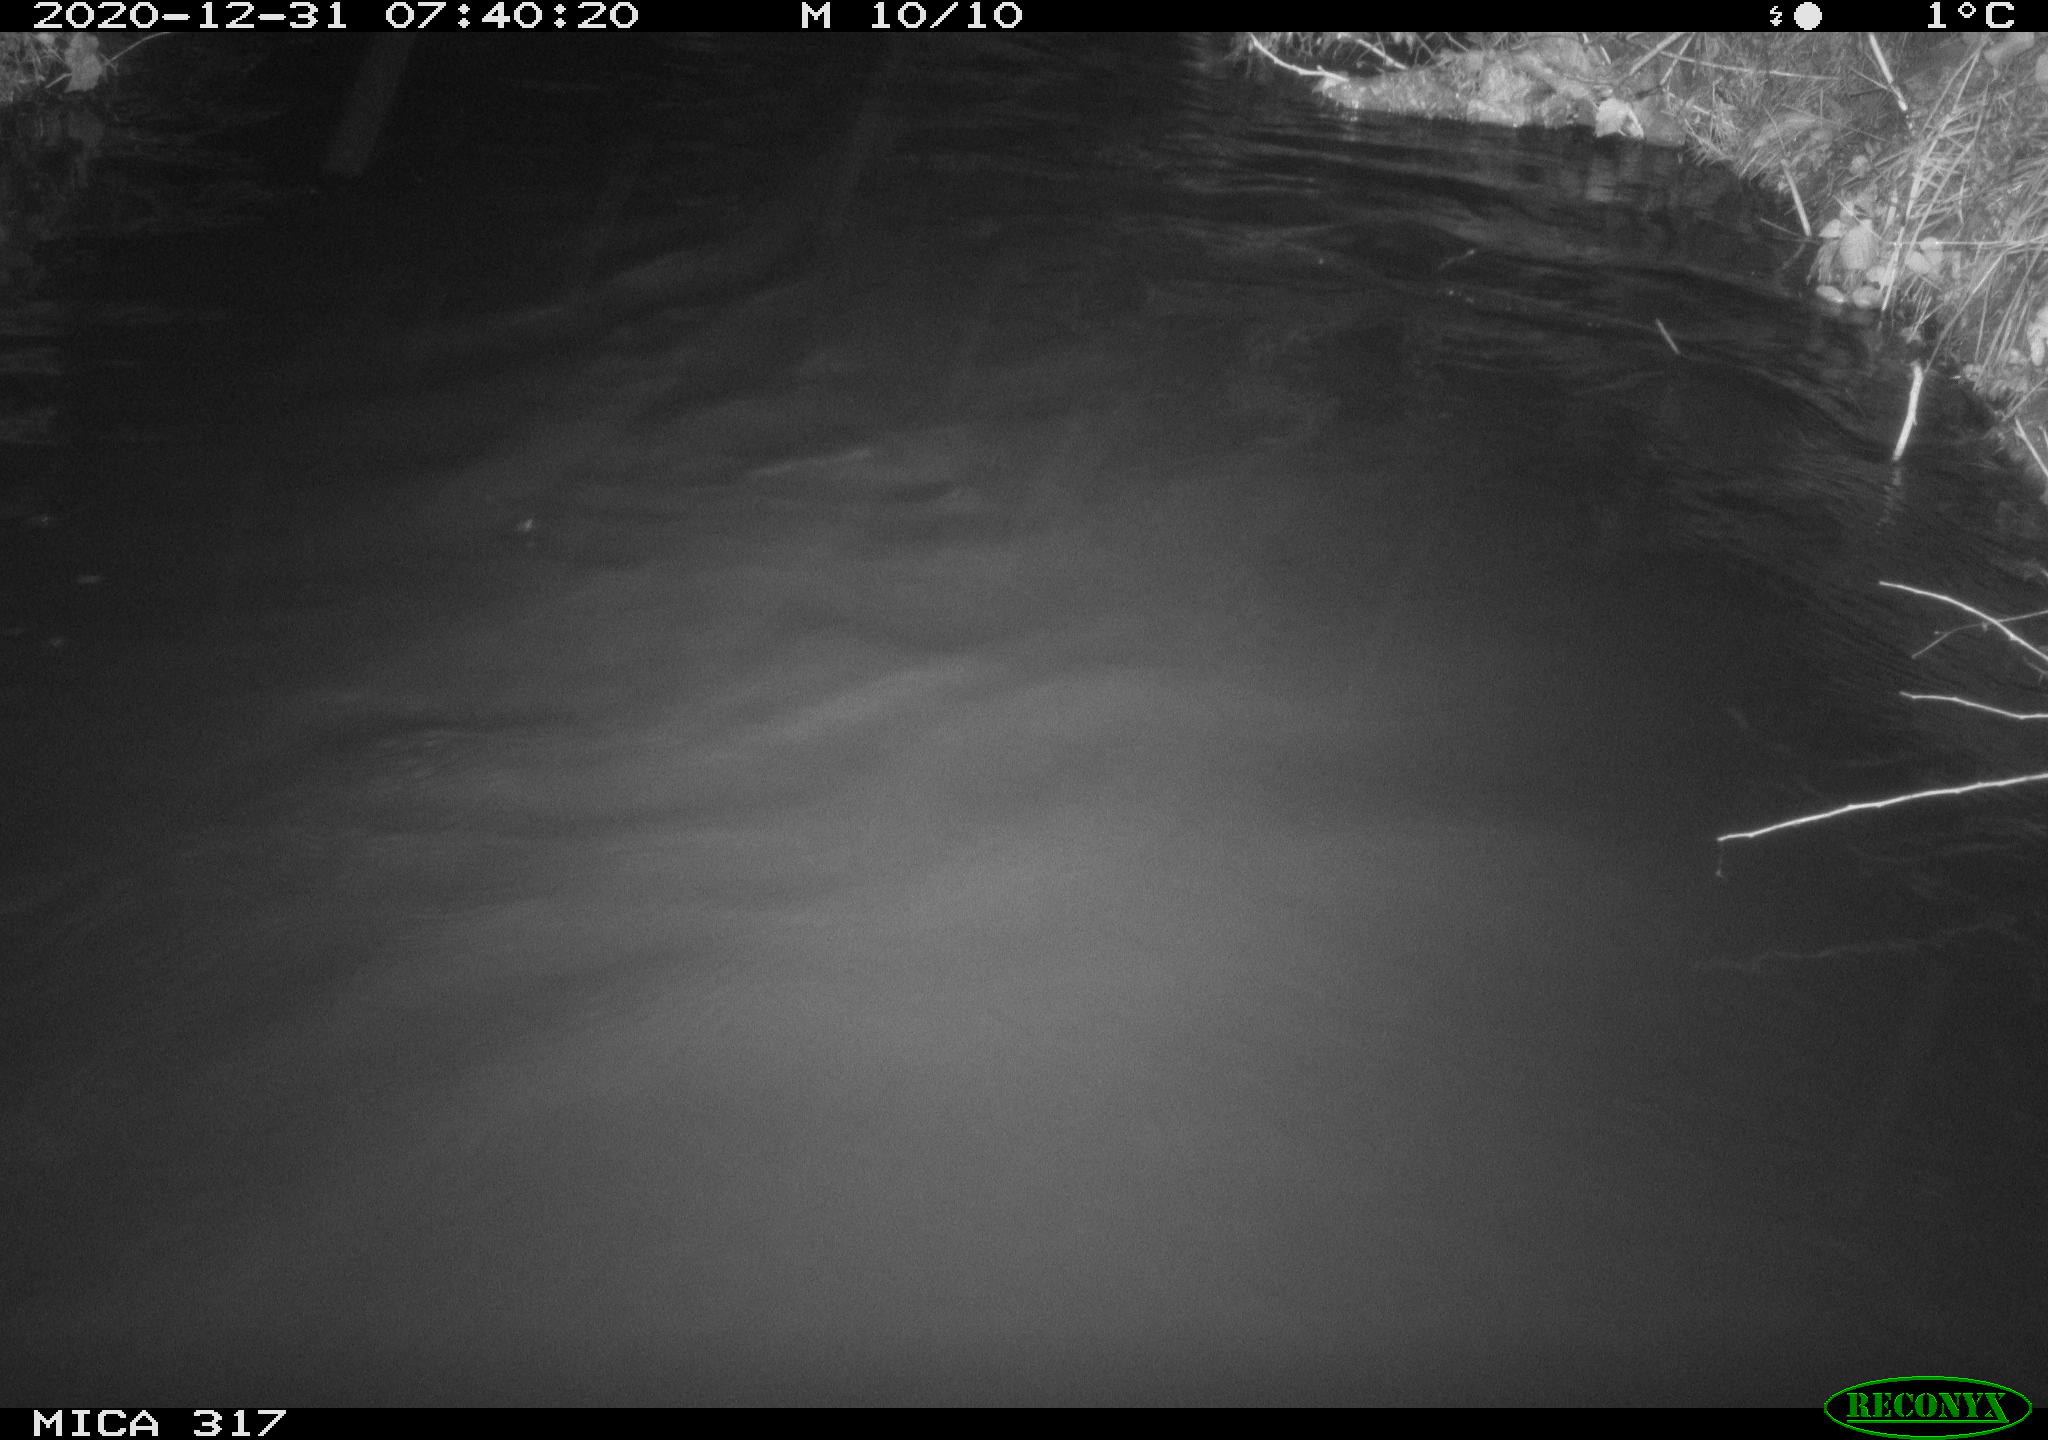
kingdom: Animalia
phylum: Chordata
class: Aves
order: Anseriformes
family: Anatidae
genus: Anas
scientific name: Anas platyrhynchos
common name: Mallard
